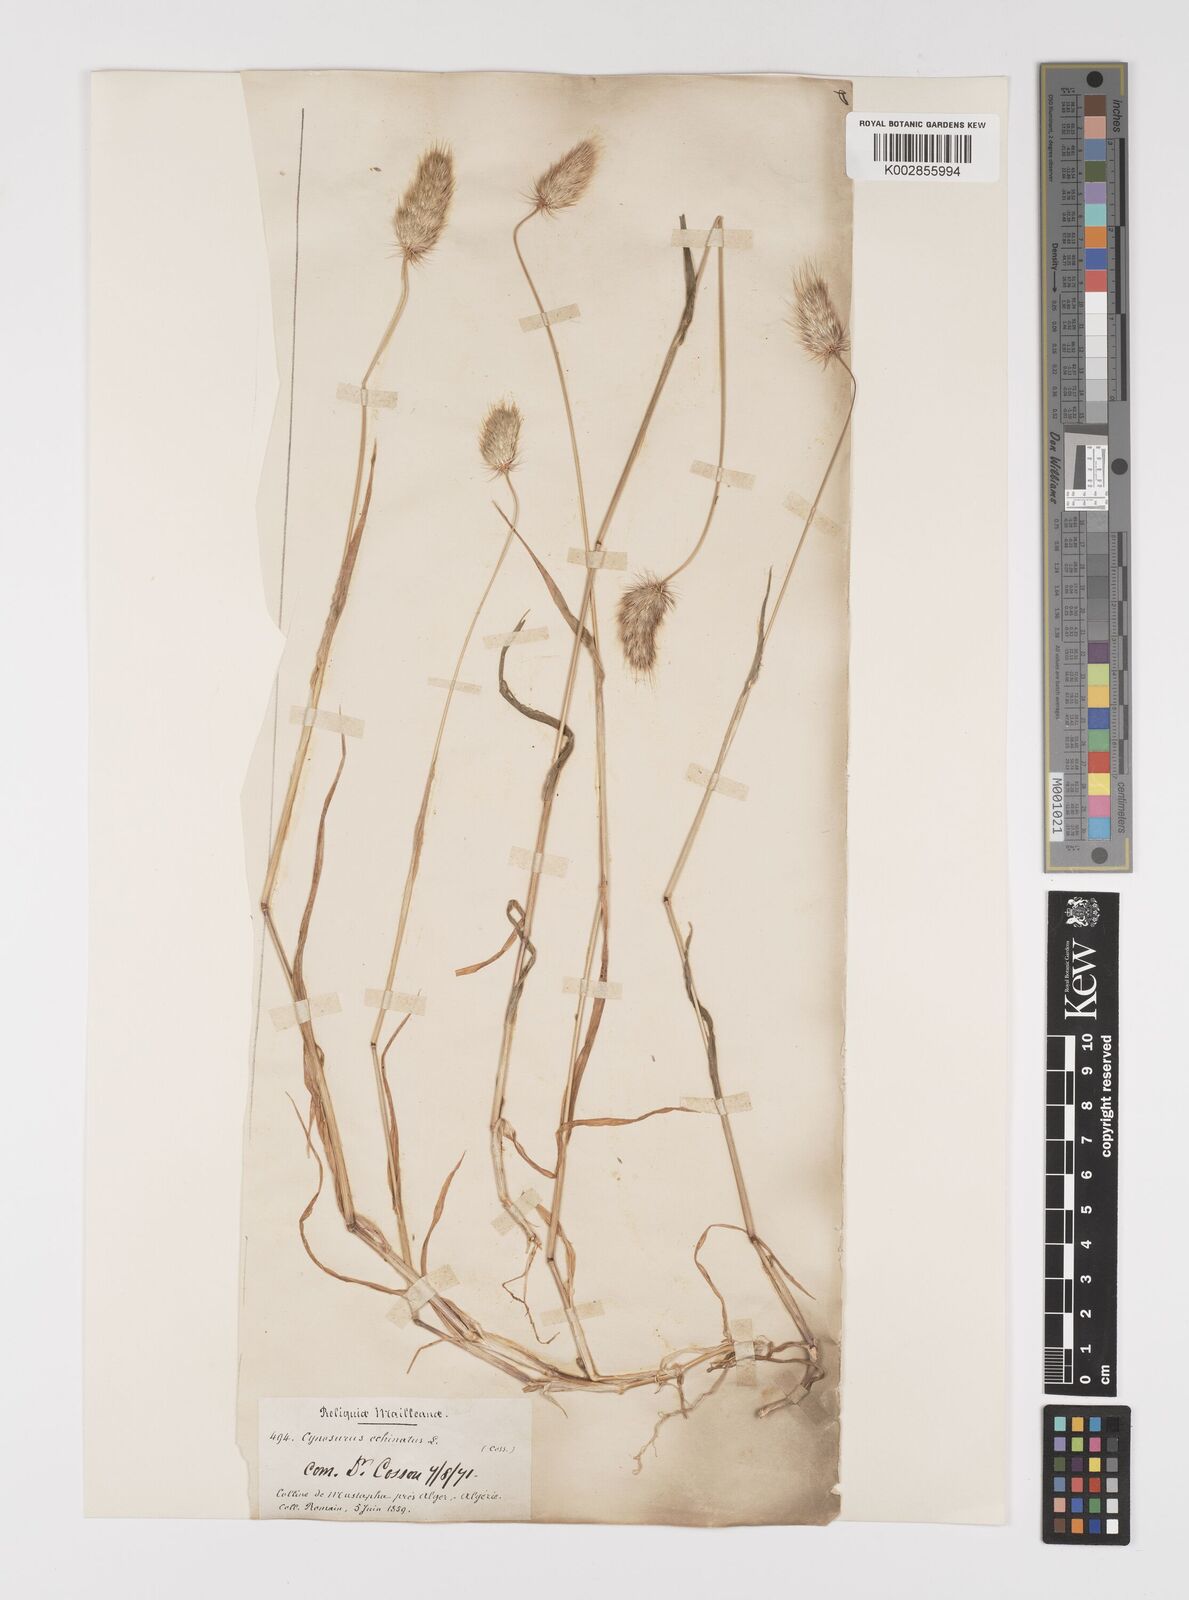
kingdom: Plantae
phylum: Tracheophyta
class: Liliopsida
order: Poales
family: Poaceae
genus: Cynosurus
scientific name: Cynosurus echinatus
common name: Rough dog's-tail
